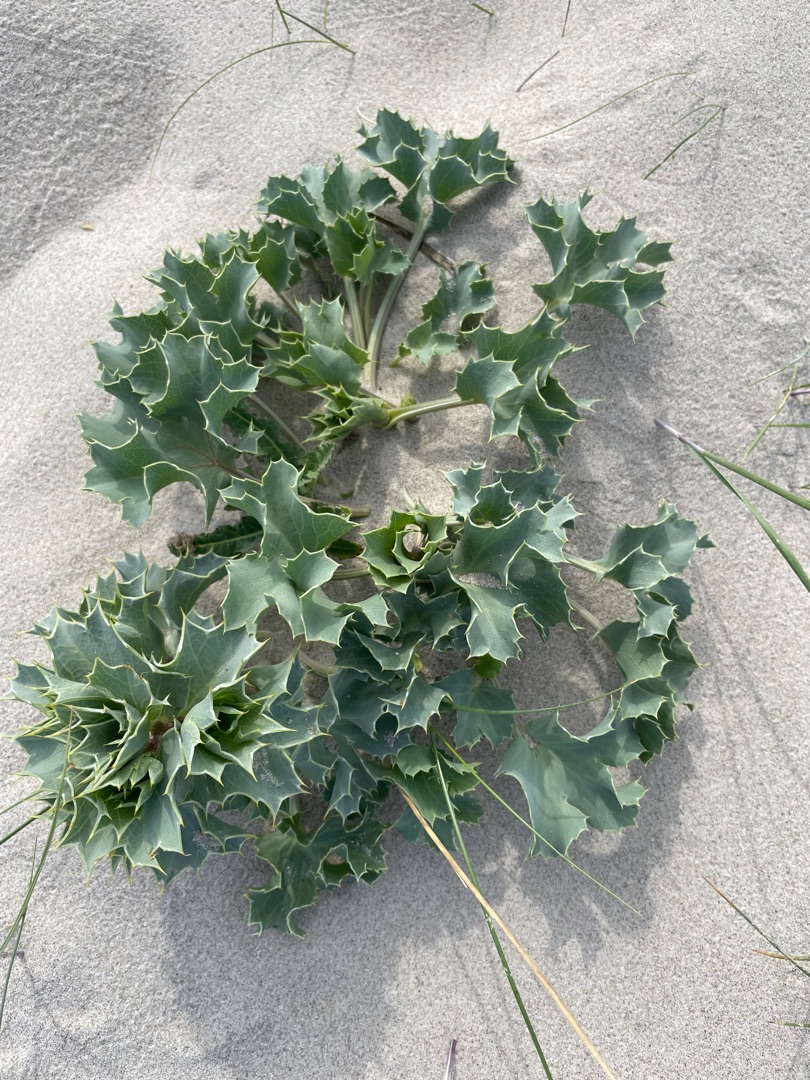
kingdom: Plantae
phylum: Tracheophyta
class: Magnoliopsida
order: Apiales
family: Apiaceae
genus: Eryngium
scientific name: Eryngium maritimum
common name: Strand-mandstro
